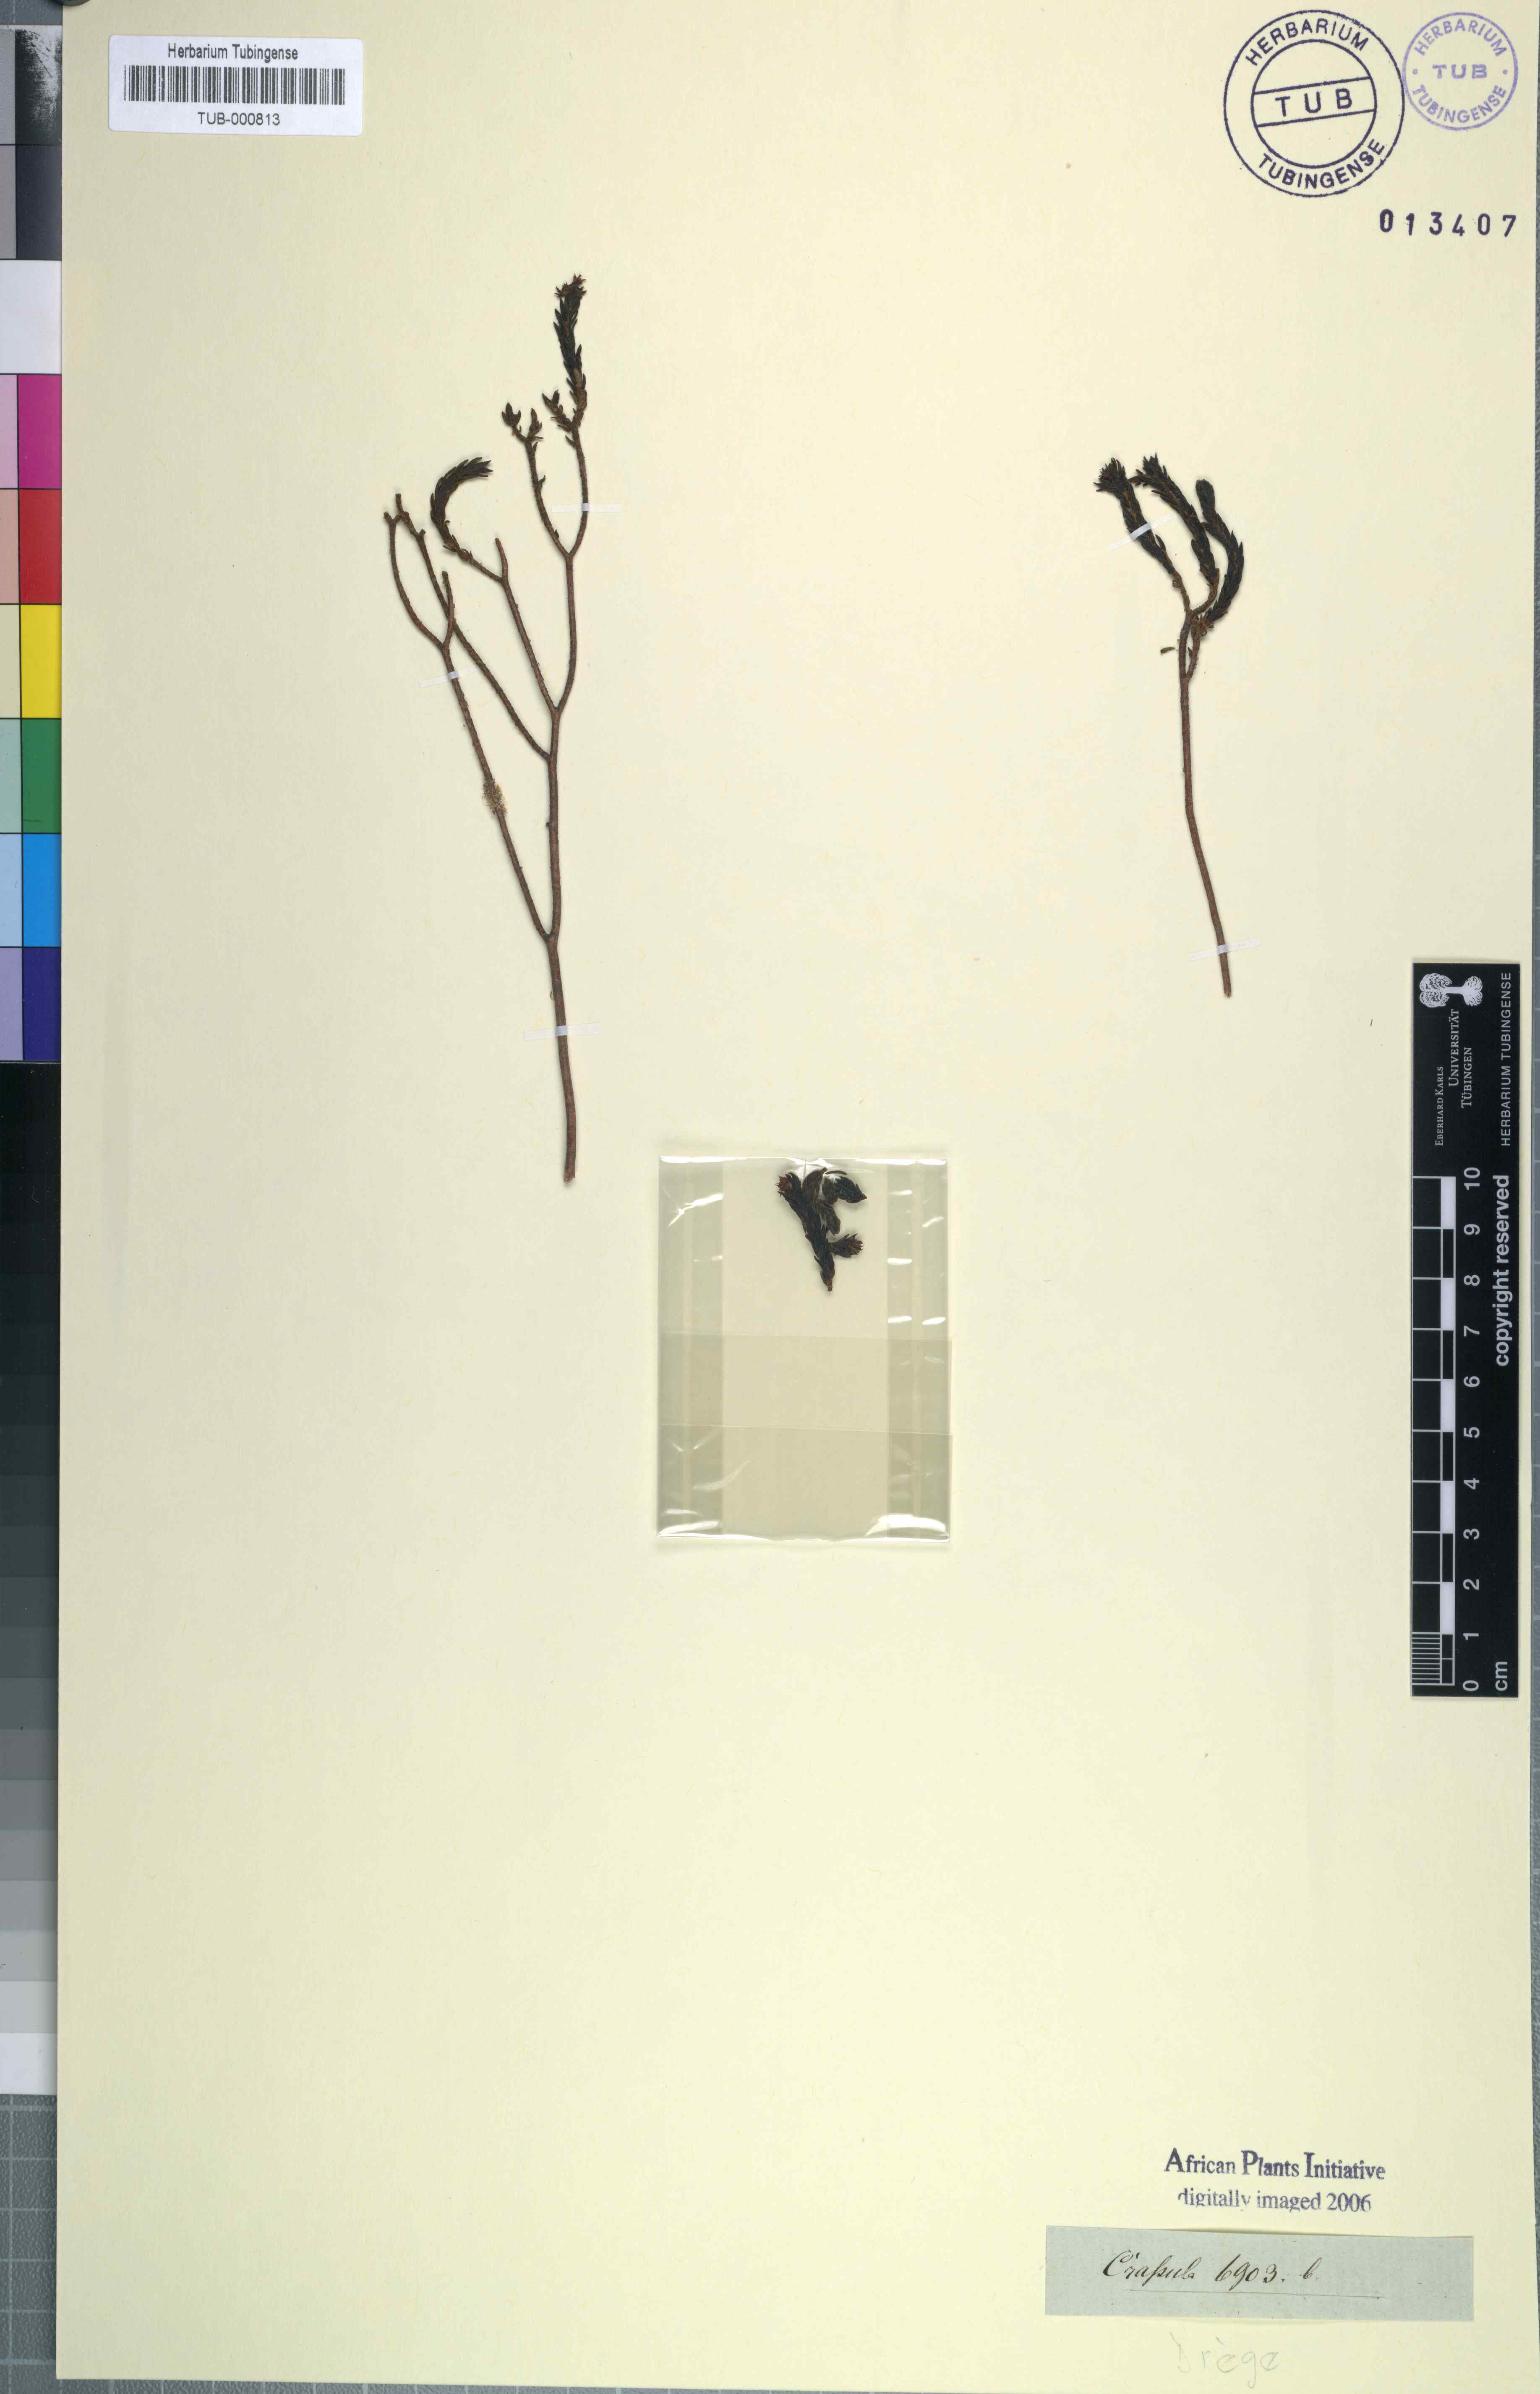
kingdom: Plantae
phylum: Tracheophyta
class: Magnoliopsida
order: Saxifragales
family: Crassulaceae
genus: Crassula
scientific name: Crassula
